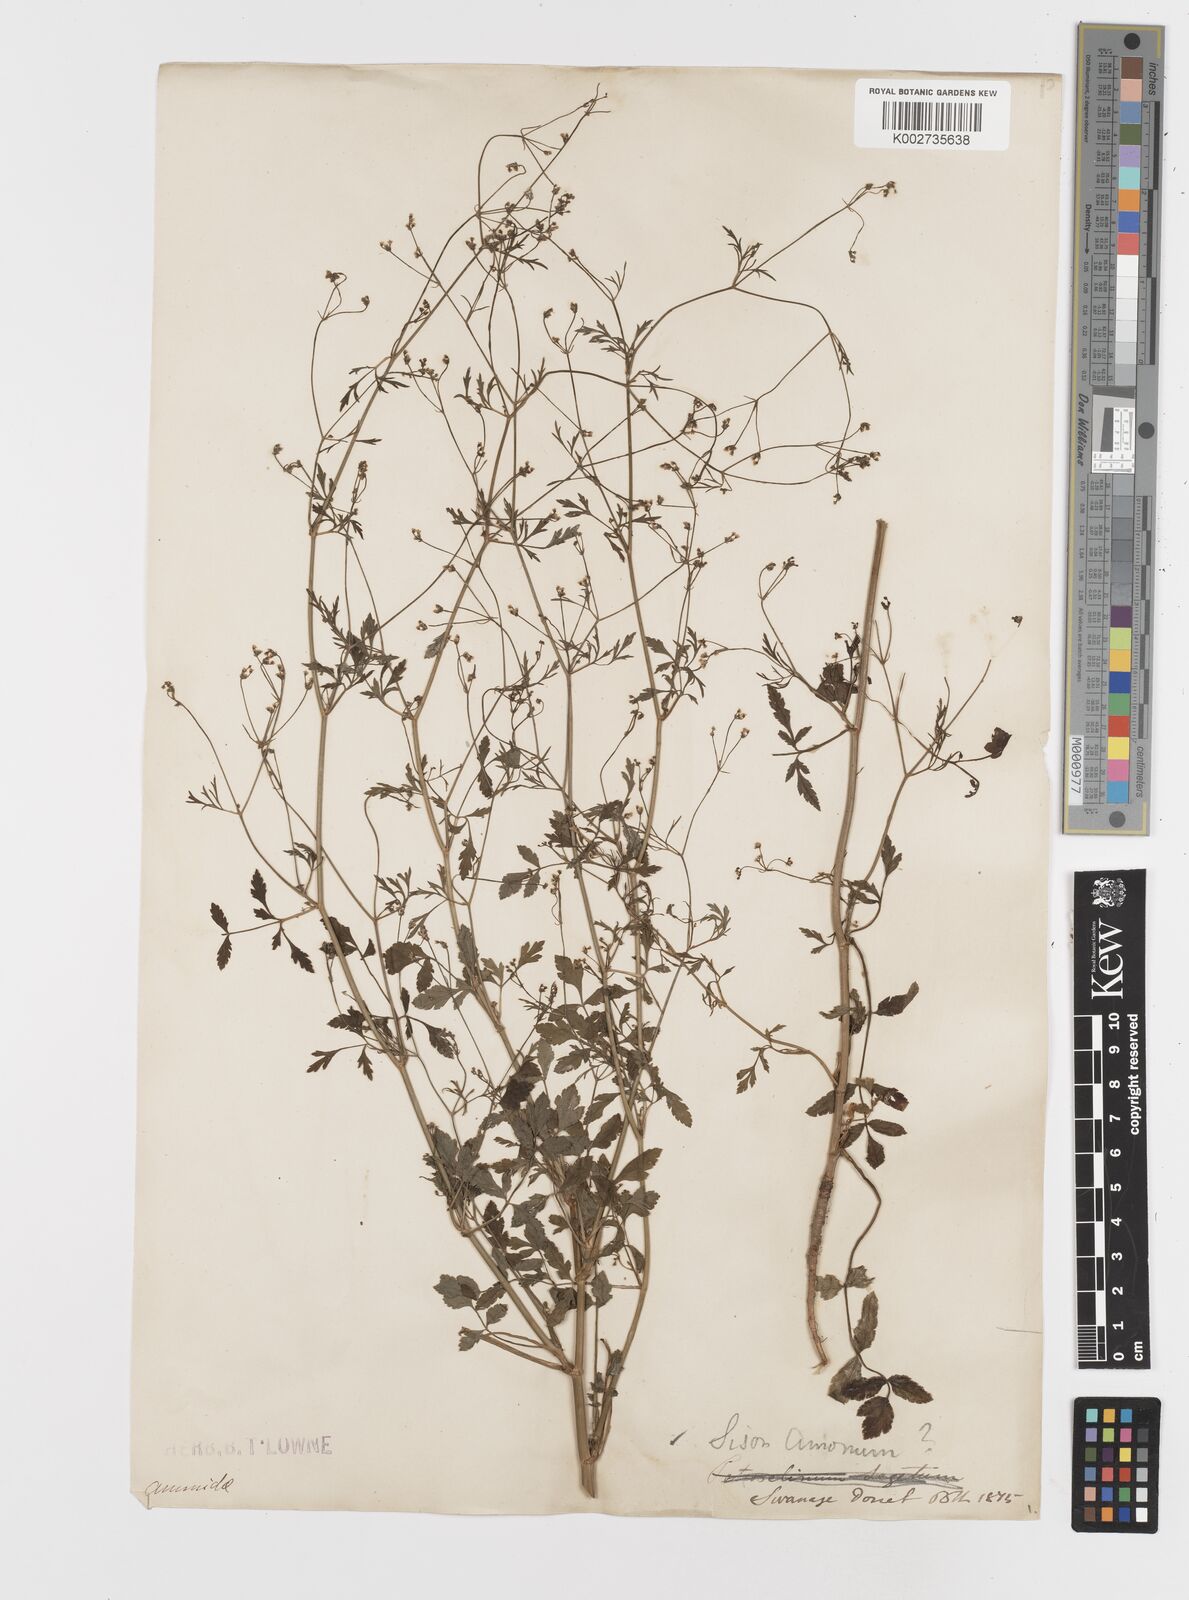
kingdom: Plantae
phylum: Tracheophyta
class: Magnoliopsida
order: Apiales
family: Apiaceae
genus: Sison
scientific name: Sison amomum
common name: Stone-parsley
